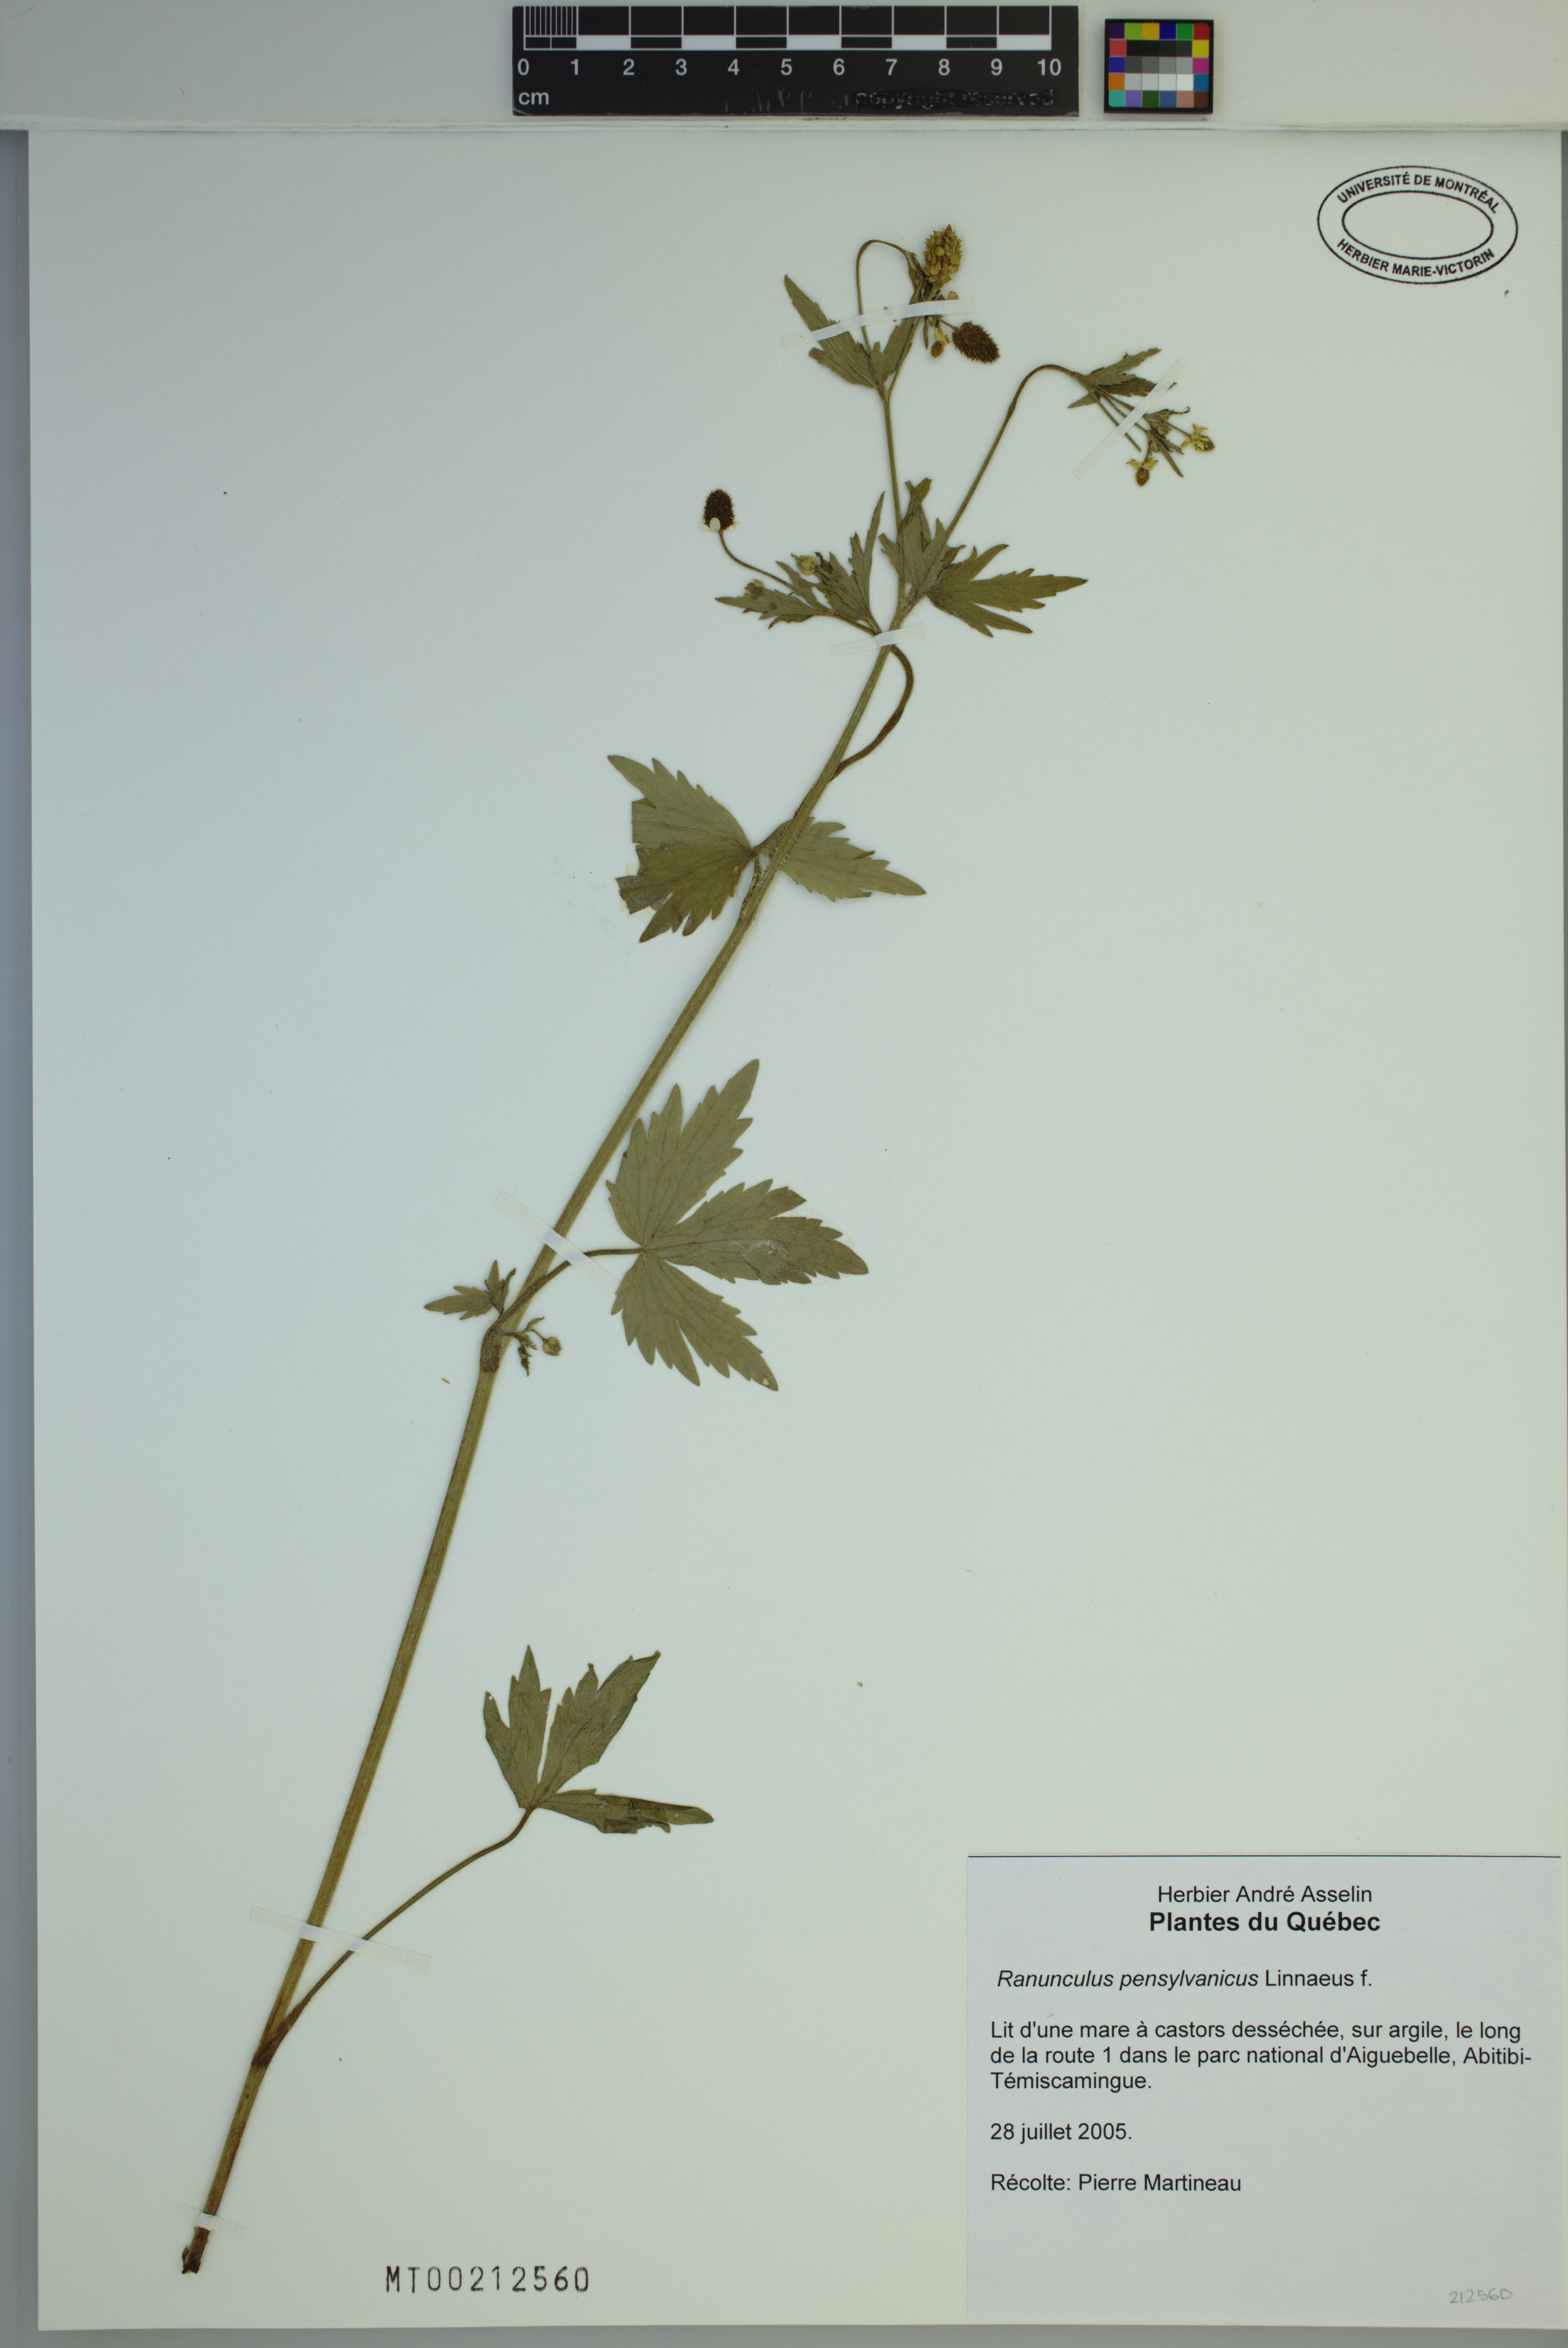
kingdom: Plantae
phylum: Tracheophyta
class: Magnoliopsida
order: Ranunculales
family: Ranunculaceae
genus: Ranunculus
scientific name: Ranunculus pensylvanicus
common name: Bristly buttercup
